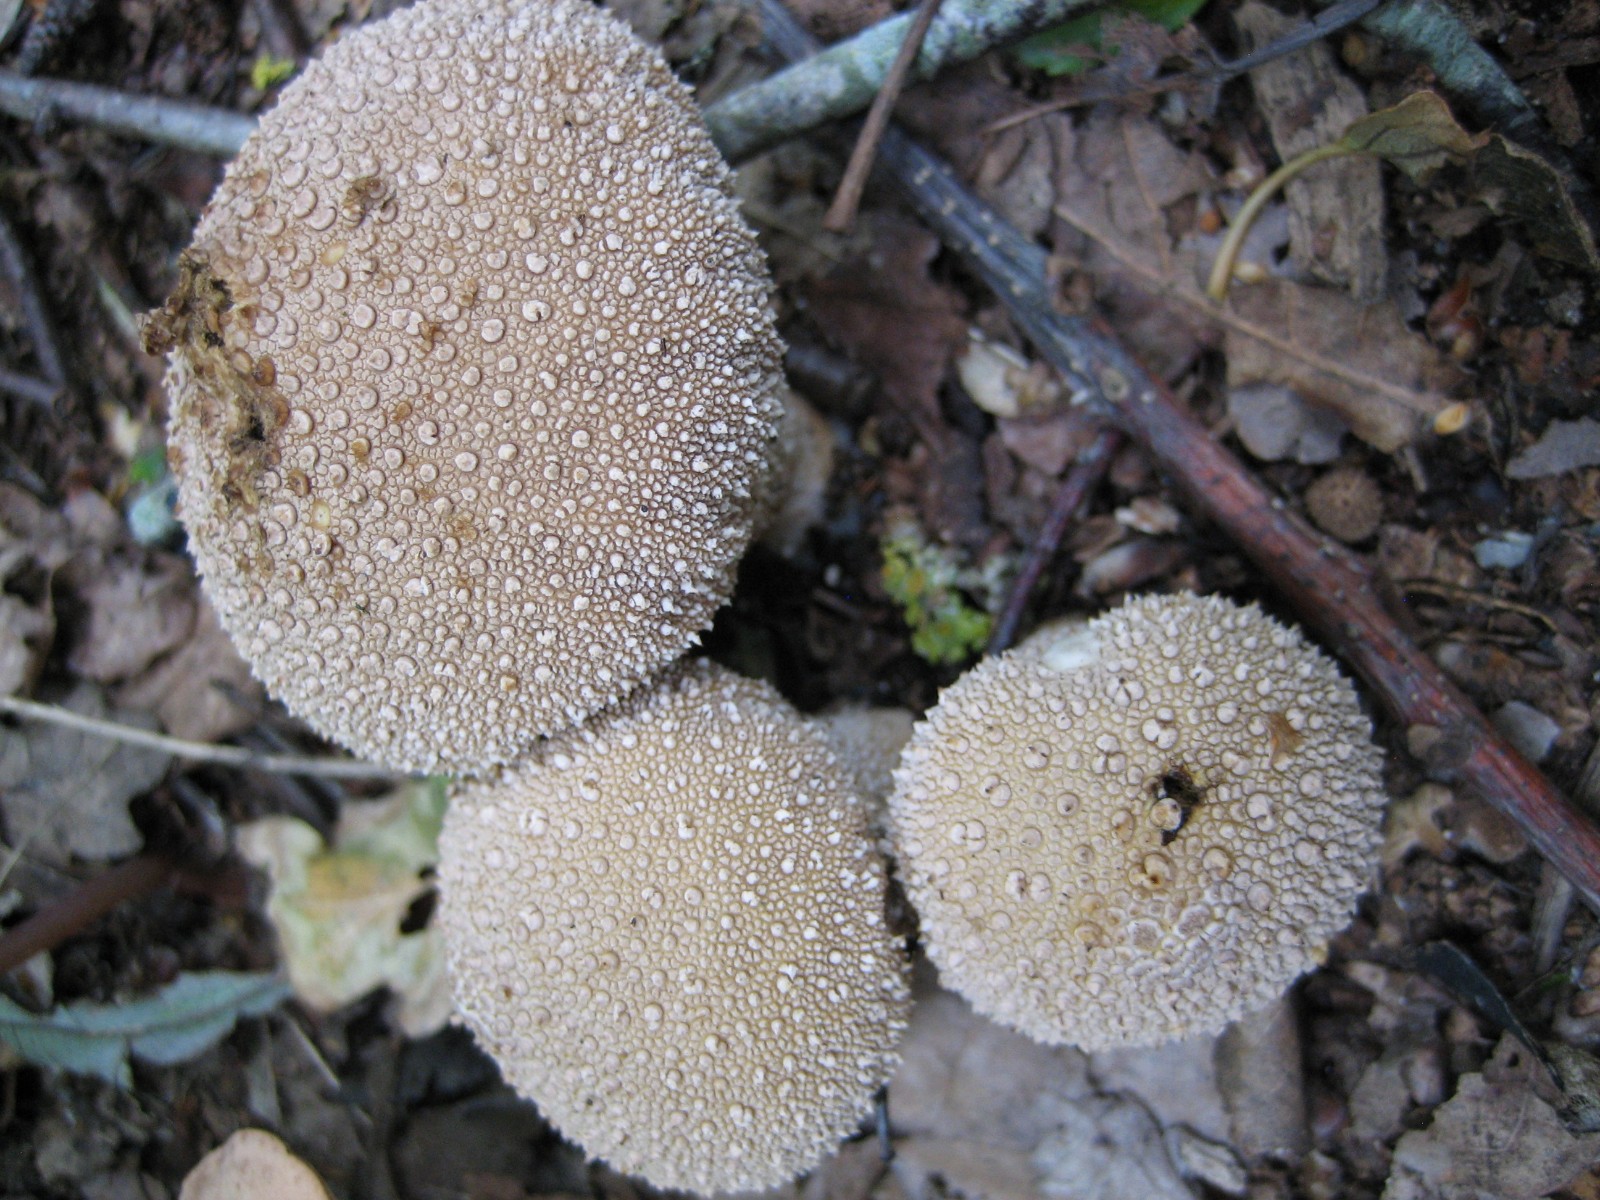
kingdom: Fungi
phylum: Basidiomycota
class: Agaricomycetes
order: Agaricales
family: Lycoperdaceae
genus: Lycoperdon
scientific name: Lycoperdon perlatum
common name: krystal-støvbold
